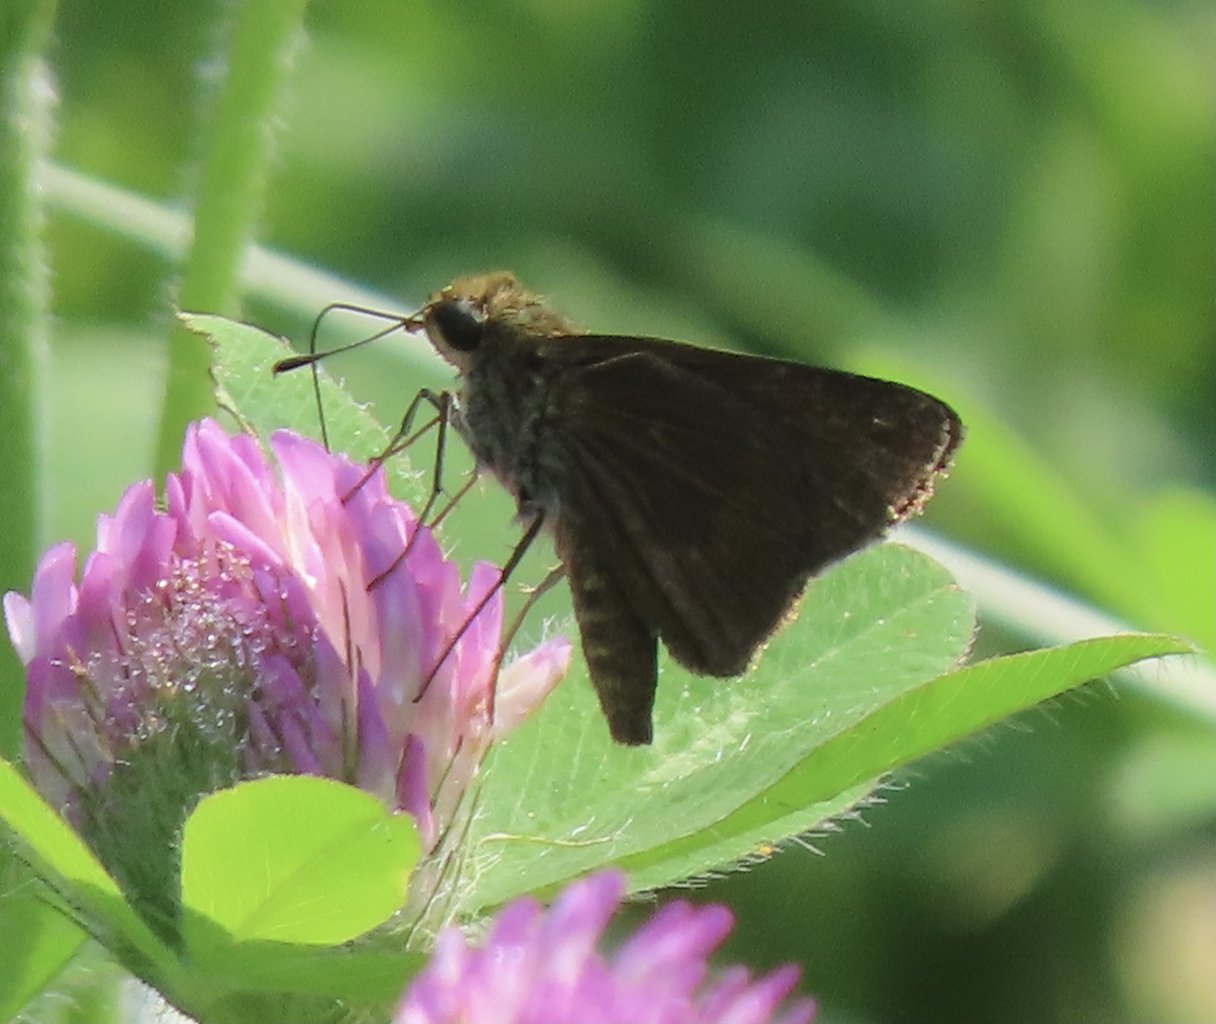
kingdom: Animalia
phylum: Arthropoda
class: Insecta
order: Lepidoptera
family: Hesperiidae
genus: Euphyes
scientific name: Euphyes vestris
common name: Dun Skipper
